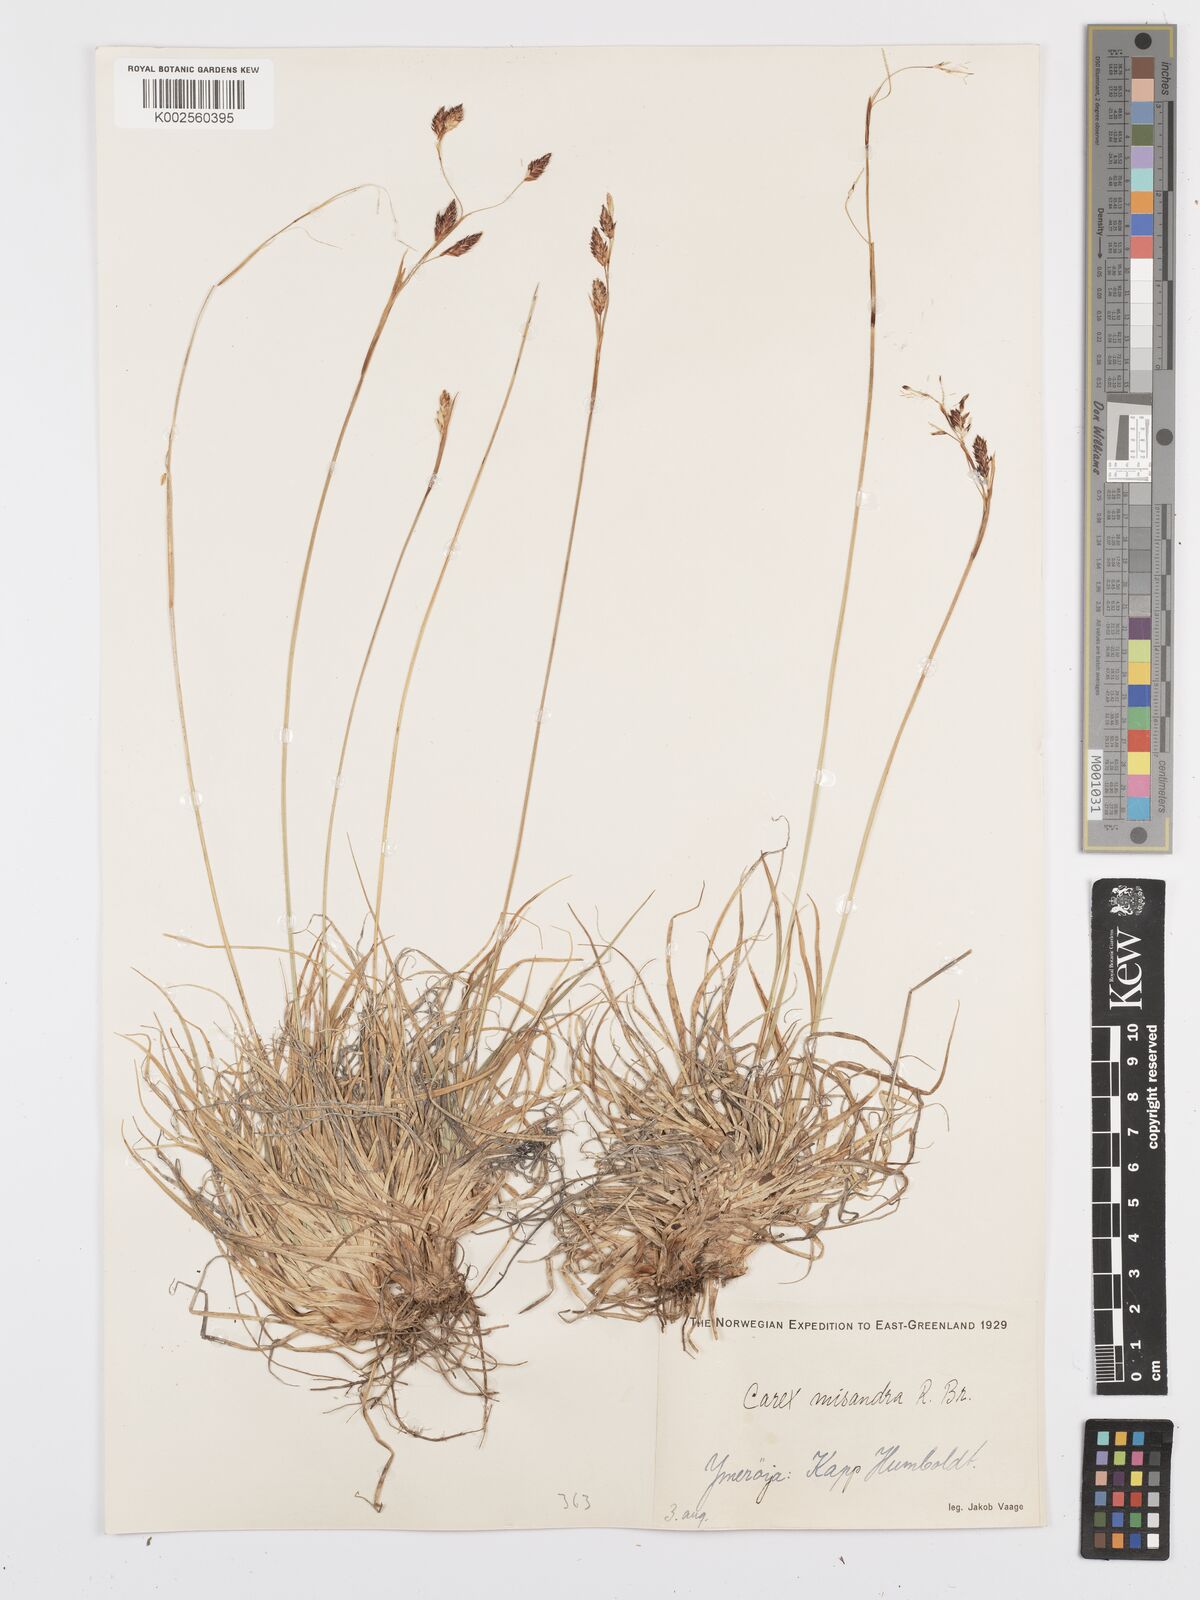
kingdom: Plantae
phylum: Tracheophyta
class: Liliopsida
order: Poales
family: Cyperaceae
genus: Carex
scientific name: Carex fuliginosa
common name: Few-flowered sedge
